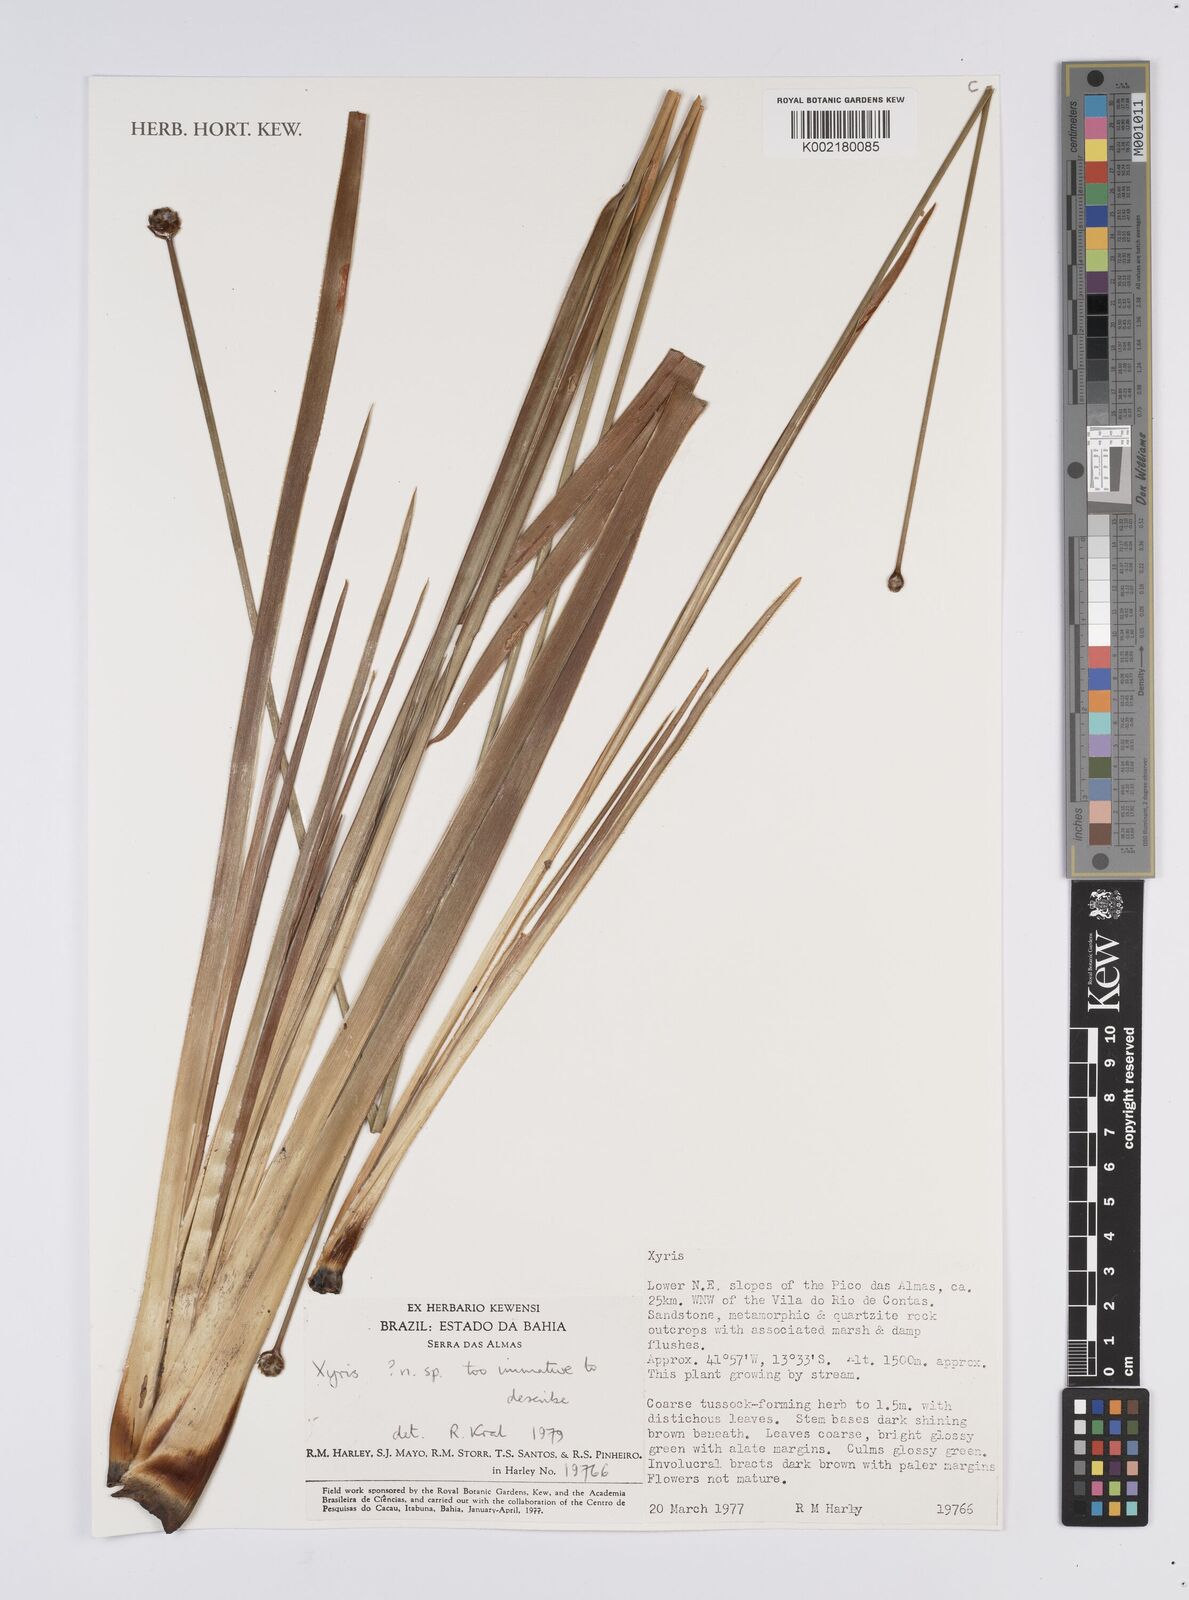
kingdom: Plantae
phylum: Tracheophyta
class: Liliopsida
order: Poales
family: Xyridaceae
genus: Xyris
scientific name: Xyris
